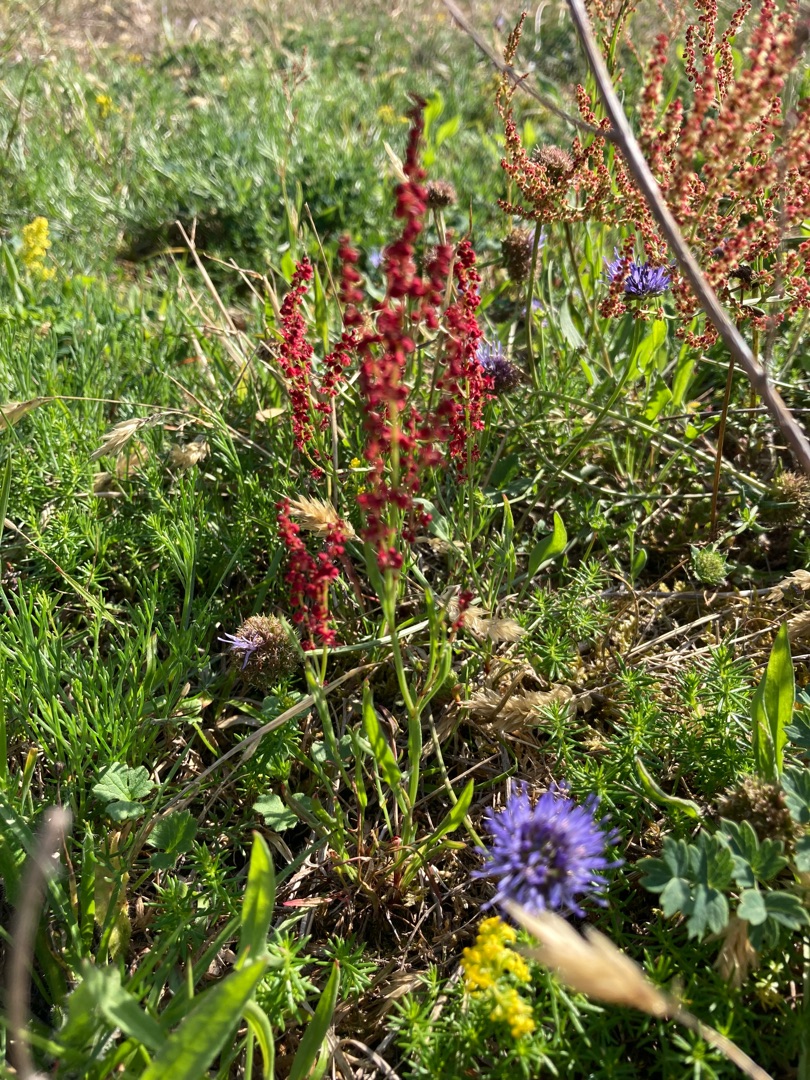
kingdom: Plantae
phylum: Tracheophyta
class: Magnoliopsida
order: Caryophyllales
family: Polygonaceae
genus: Rumex
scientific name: Rumex acetosella
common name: Rødknæ
